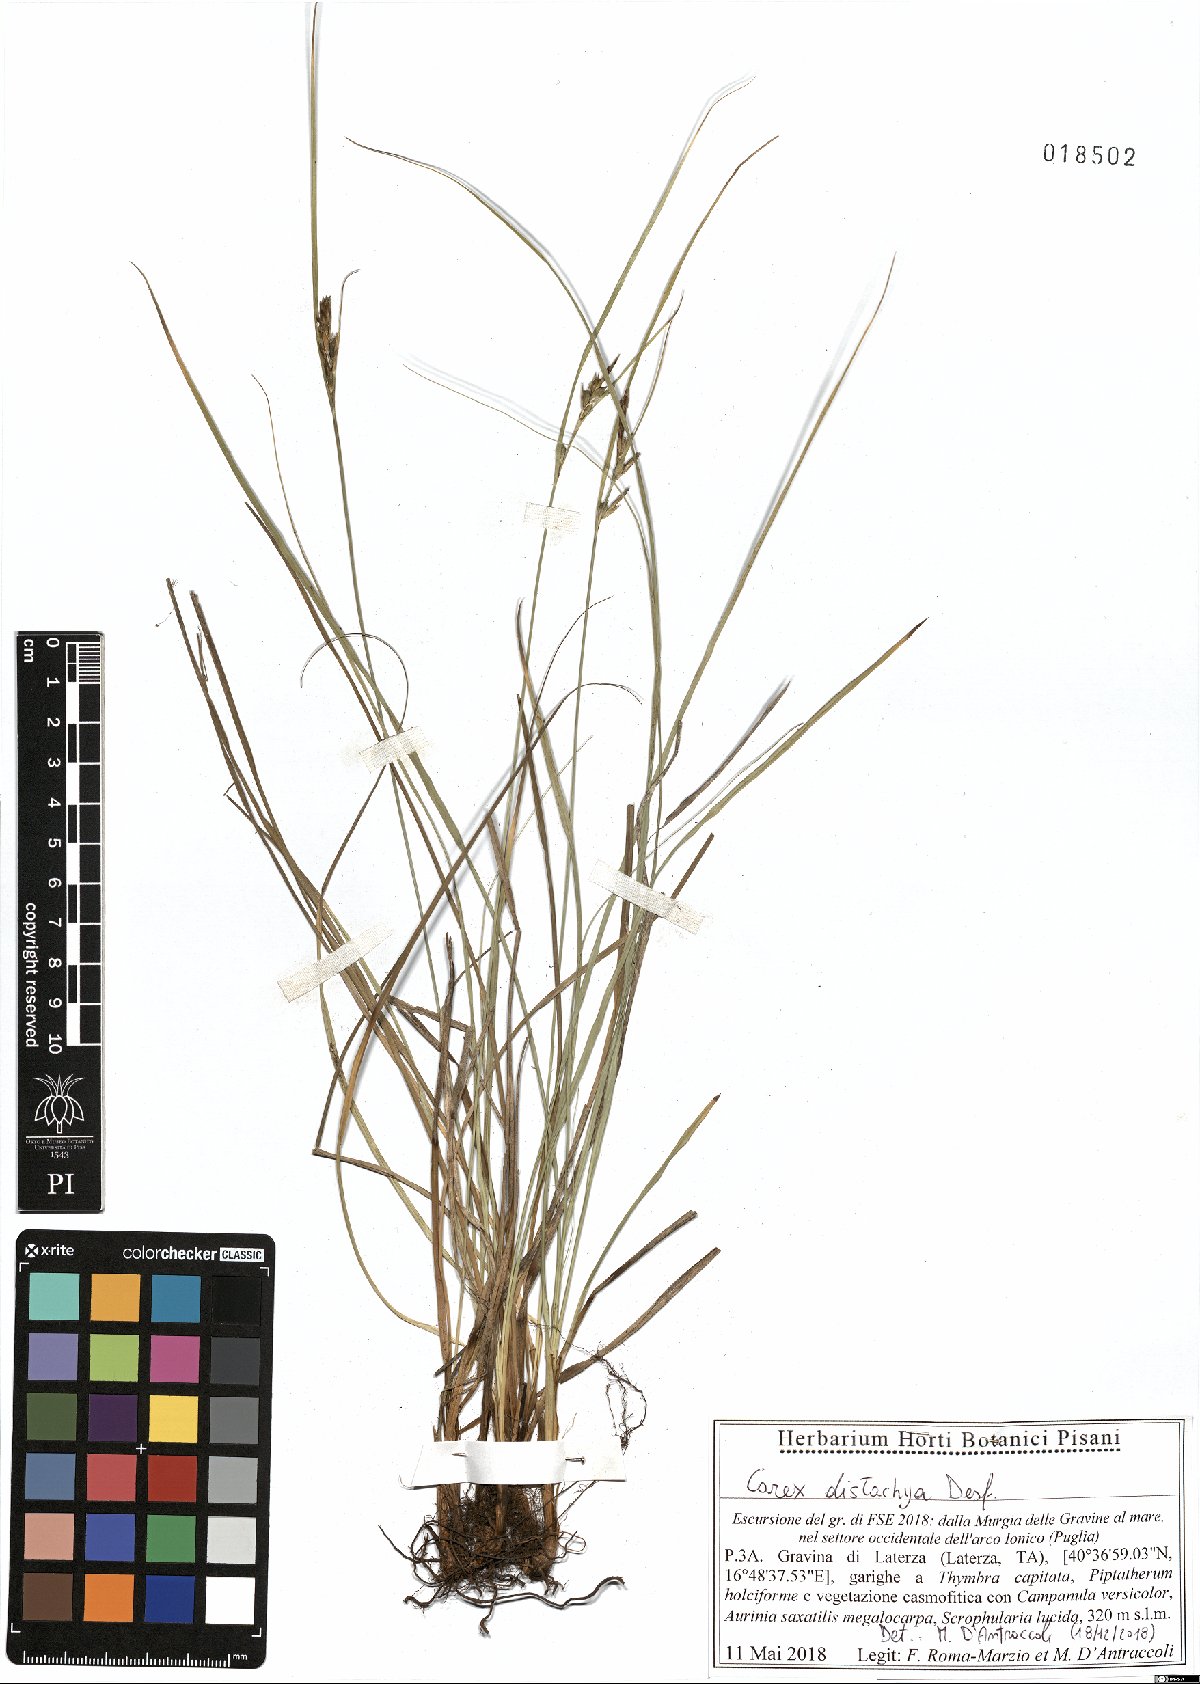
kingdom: Plantae
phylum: Tracheophyta
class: Liliopsida
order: Poales
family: Cyperaceae
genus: Carex
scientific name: Carex distachya
